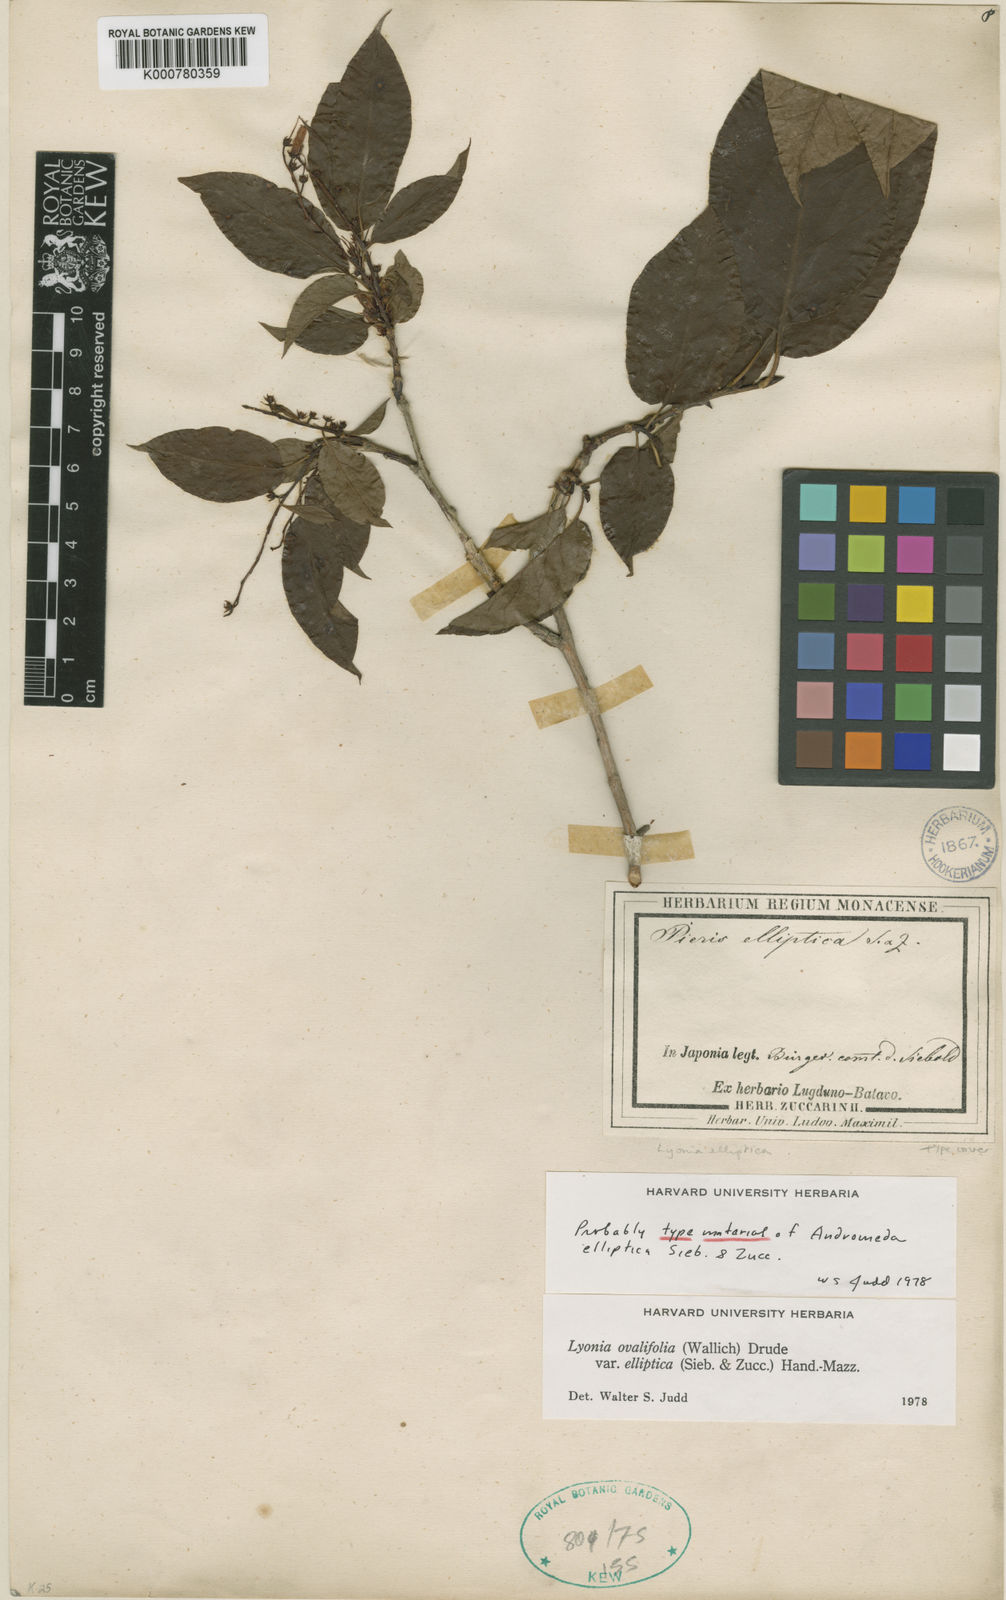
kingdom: Plantae
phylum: Tracheophyta
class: Magnoliopsida
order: Ericales
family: Ericaceae
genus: Lyonia
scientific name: Lyonia elliptica
